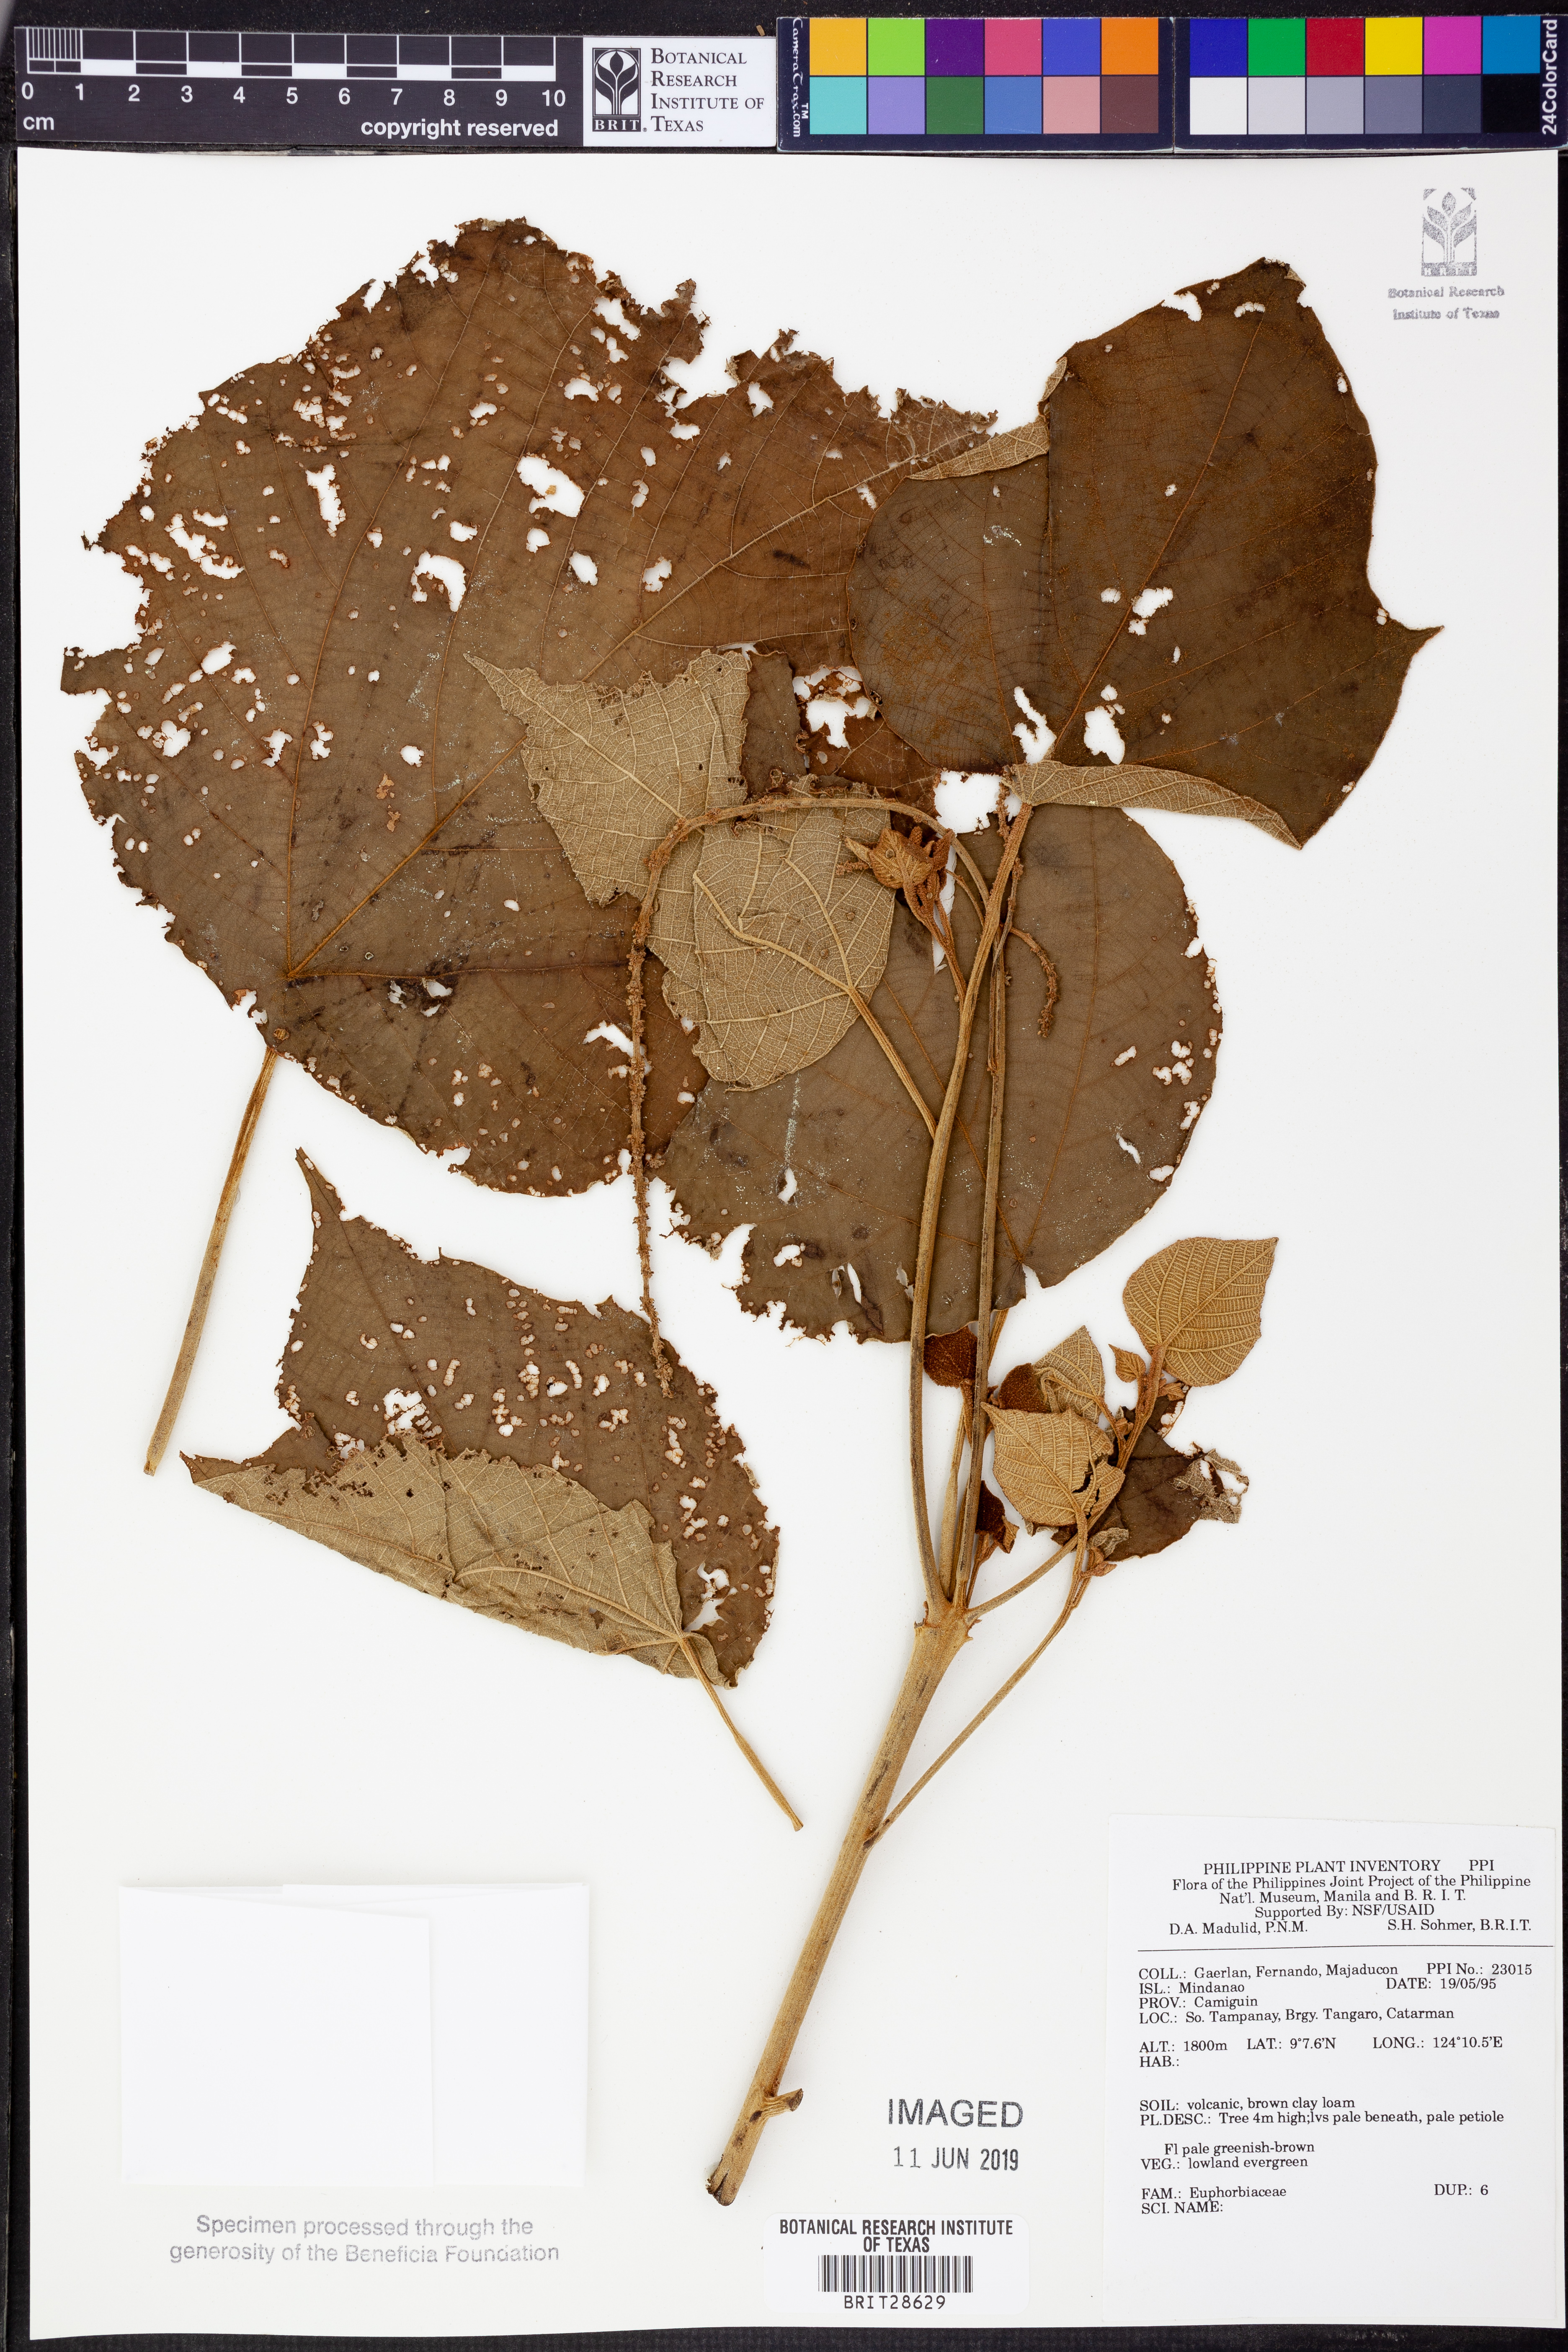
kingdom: Plantae
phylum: Tracheophyta
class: Magnoliopsida
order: Malpighiales
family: Euphorbiaceae
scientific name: Euphorbiaceae
